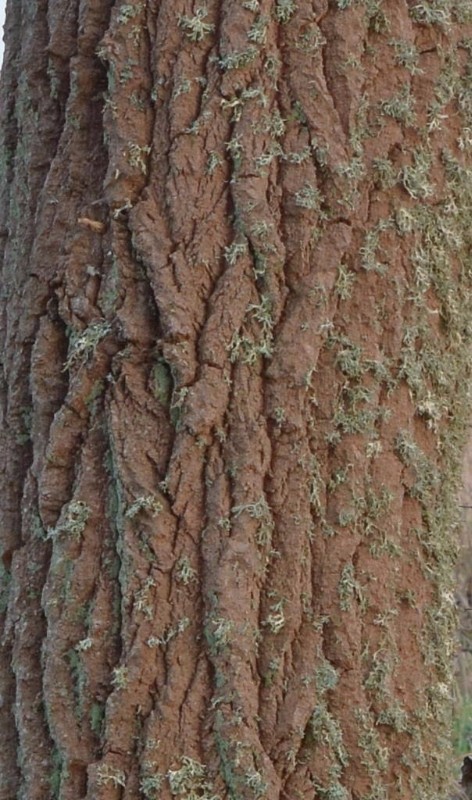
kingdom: Fungi
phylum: Basidiomycota
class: Agaricomycetes
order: Hymenochaetales
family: Hymenochaetaceae
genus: Phellinus
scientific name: Phellinus populicola
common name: poppel-ildporesvamp
